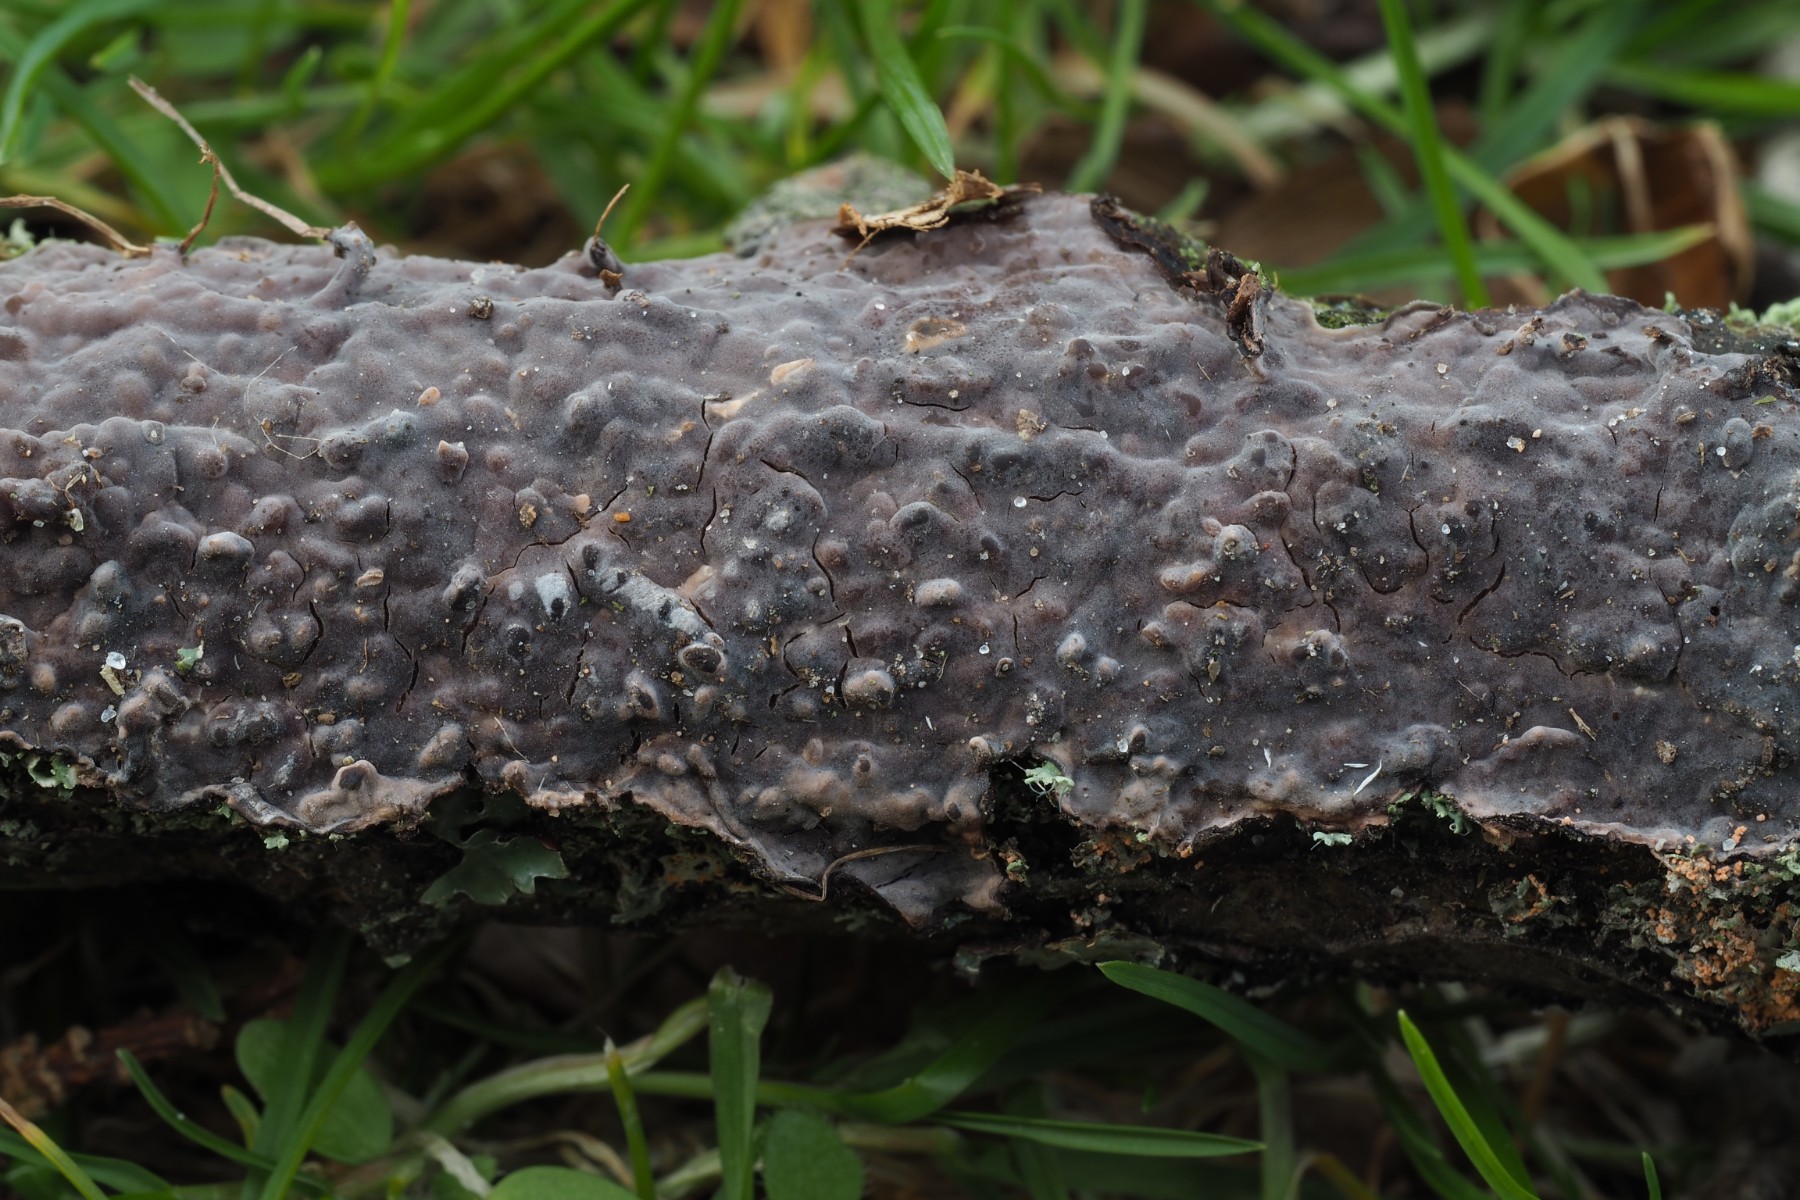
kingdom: Fungi
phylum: Basidiomycota
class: Agaricomycetes
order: Russulales
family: Peniophoraceae
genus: Peniophora
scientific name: Peniophora quercina
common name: ege-voksskind
